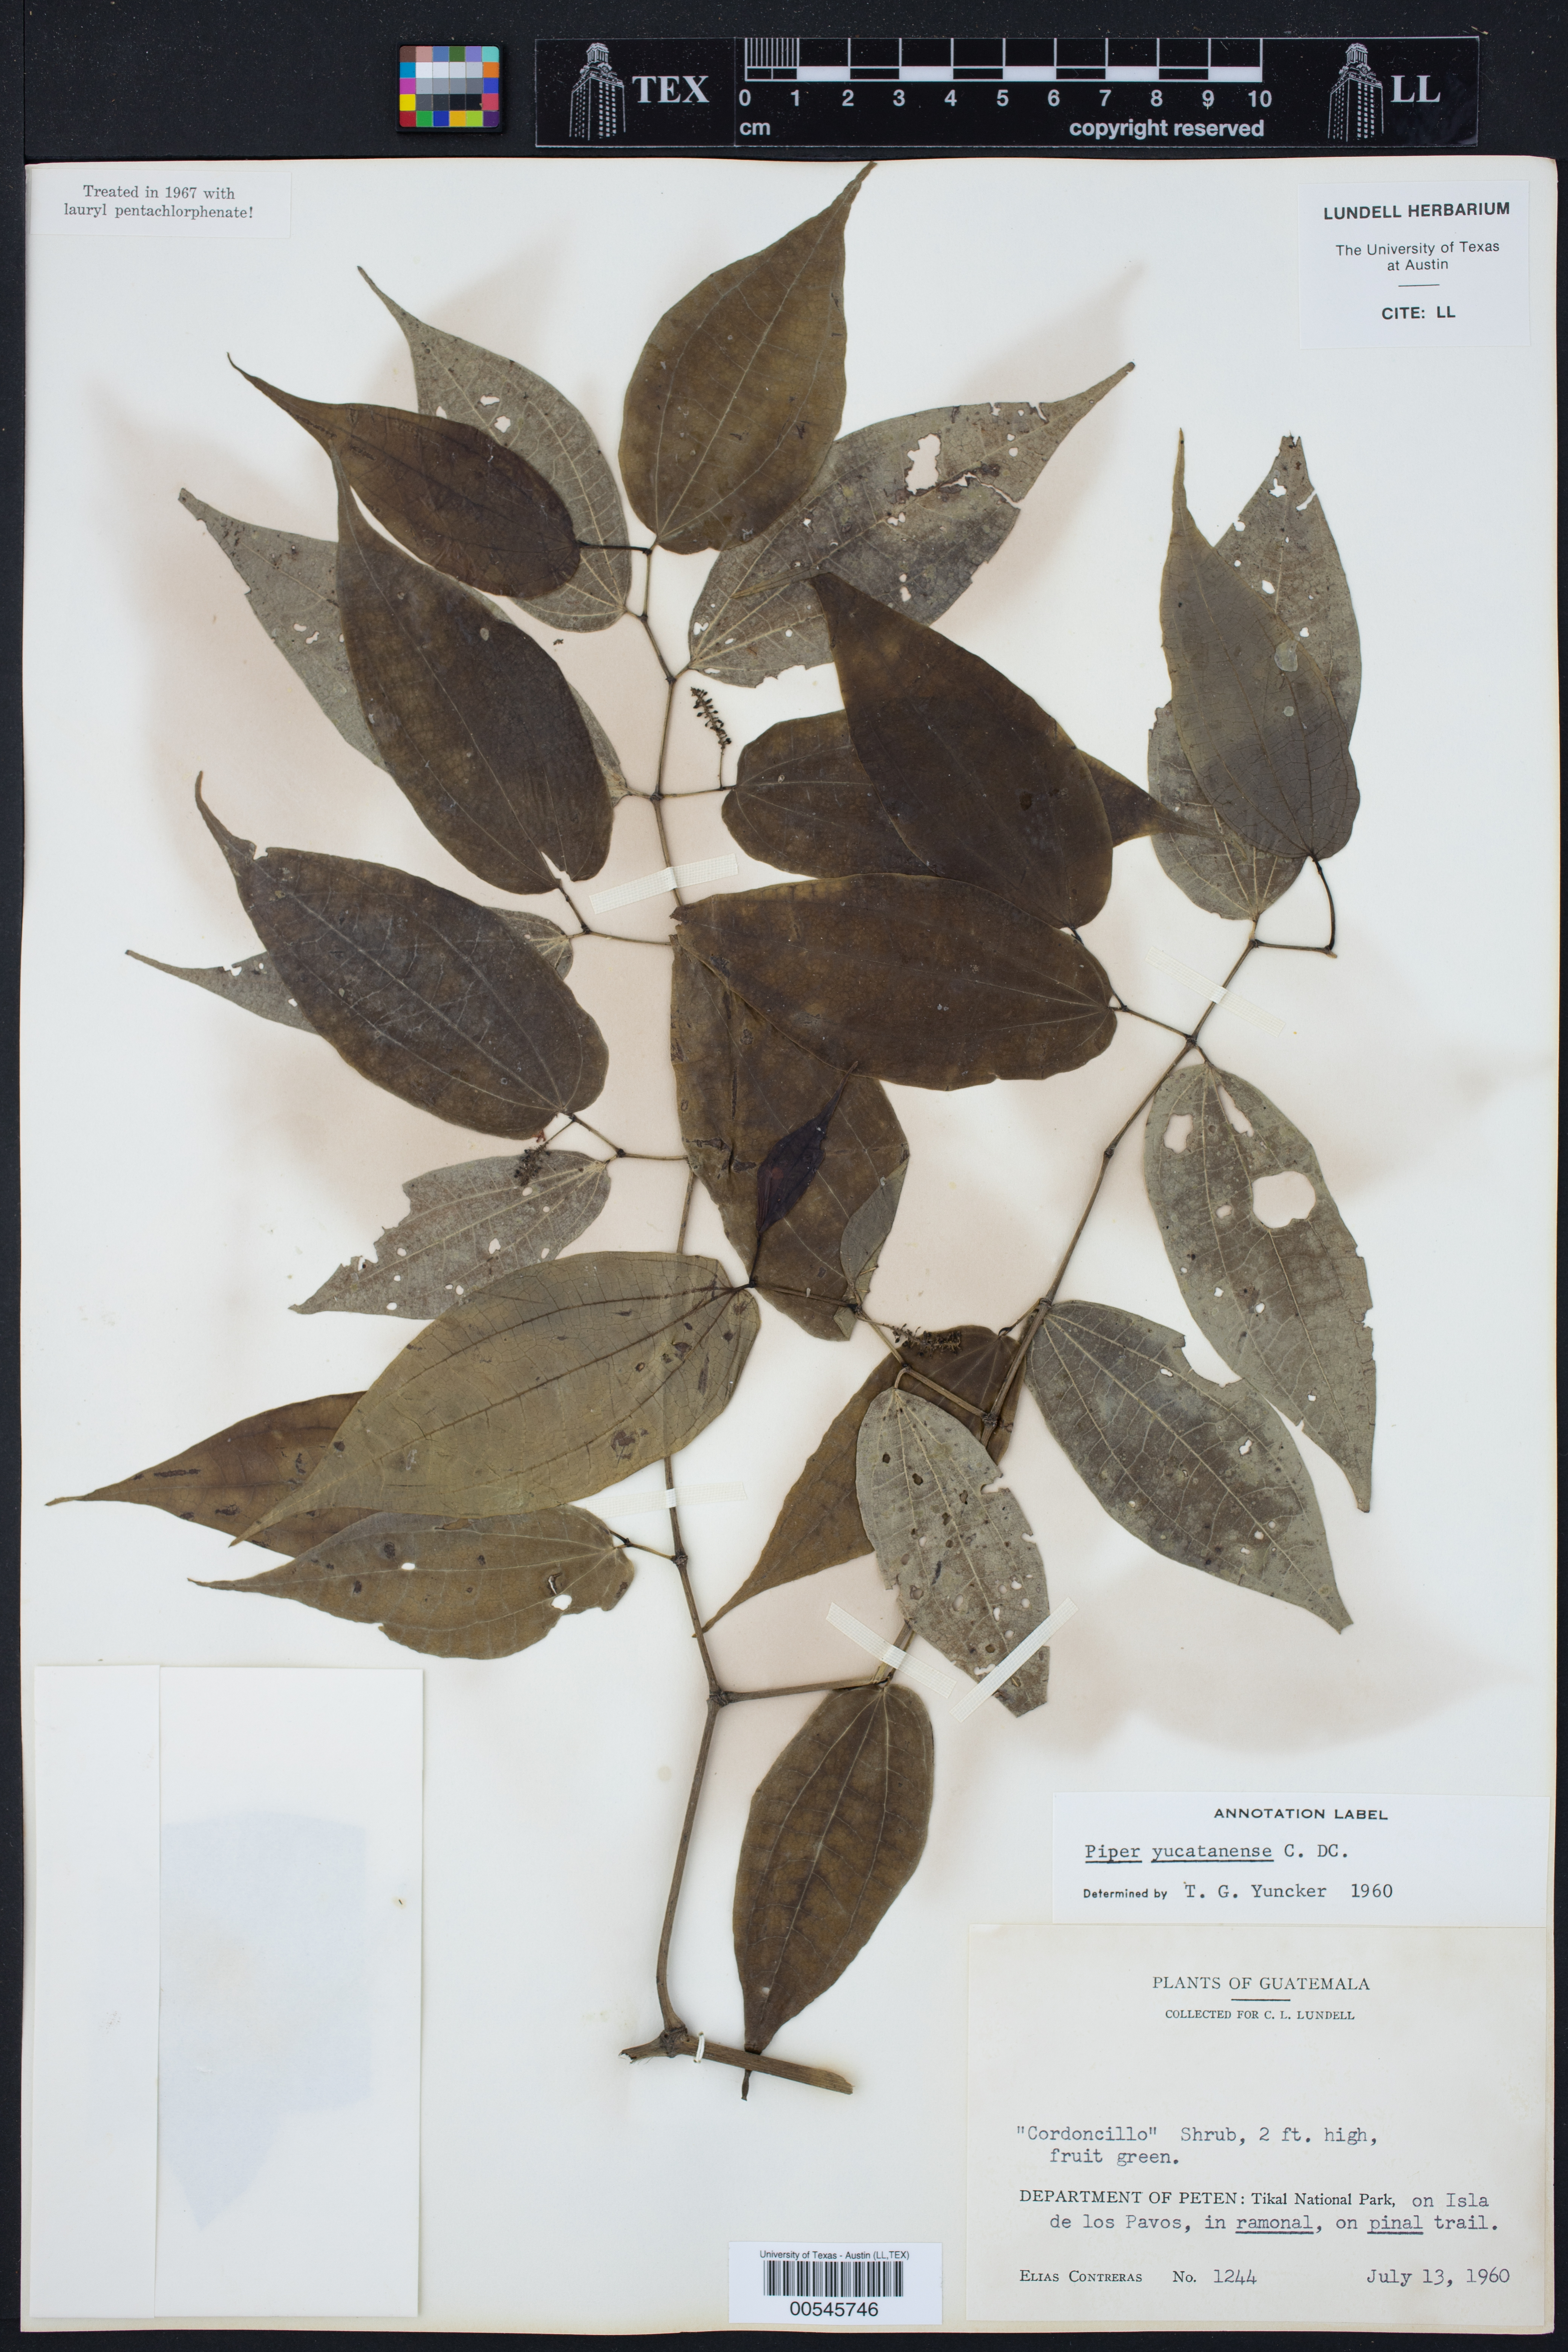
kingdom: Plantae
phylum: Tracheophyta
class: Magnoliopsida
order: Piperales
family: Piperaceae
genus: Piper
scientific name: Piper yucatanense
